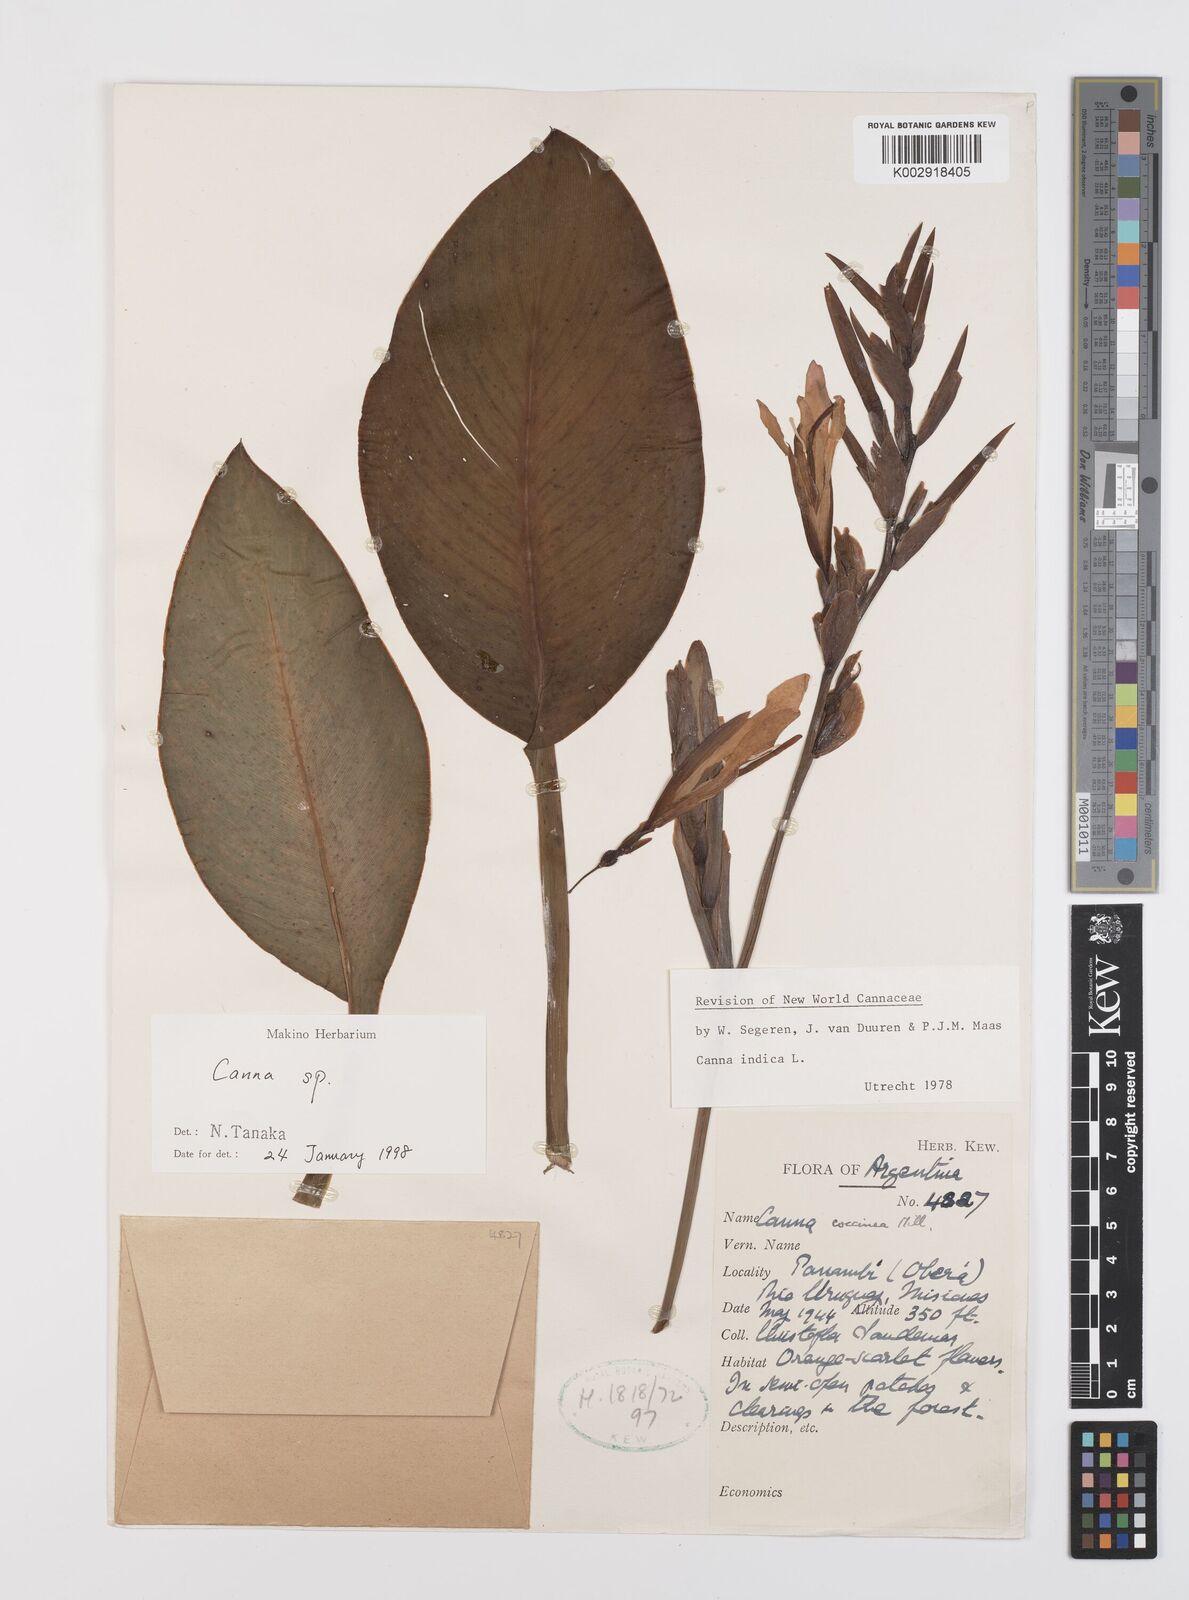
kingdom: Plantae
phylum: Tracheophyta
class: Liliopsida
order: Zingiberales
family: Cannaceae
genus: Canna
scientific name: Canna indica
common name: Indian shot
